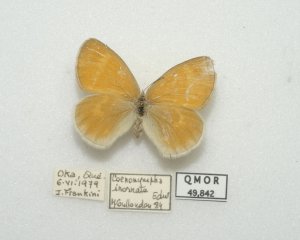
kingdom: Animalia
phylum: Arthropoda
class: Insecta
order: Lepidoptera
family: Nymphalidae
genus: Coenonympha
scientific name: Coenonympha tullia
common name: Large Heath
